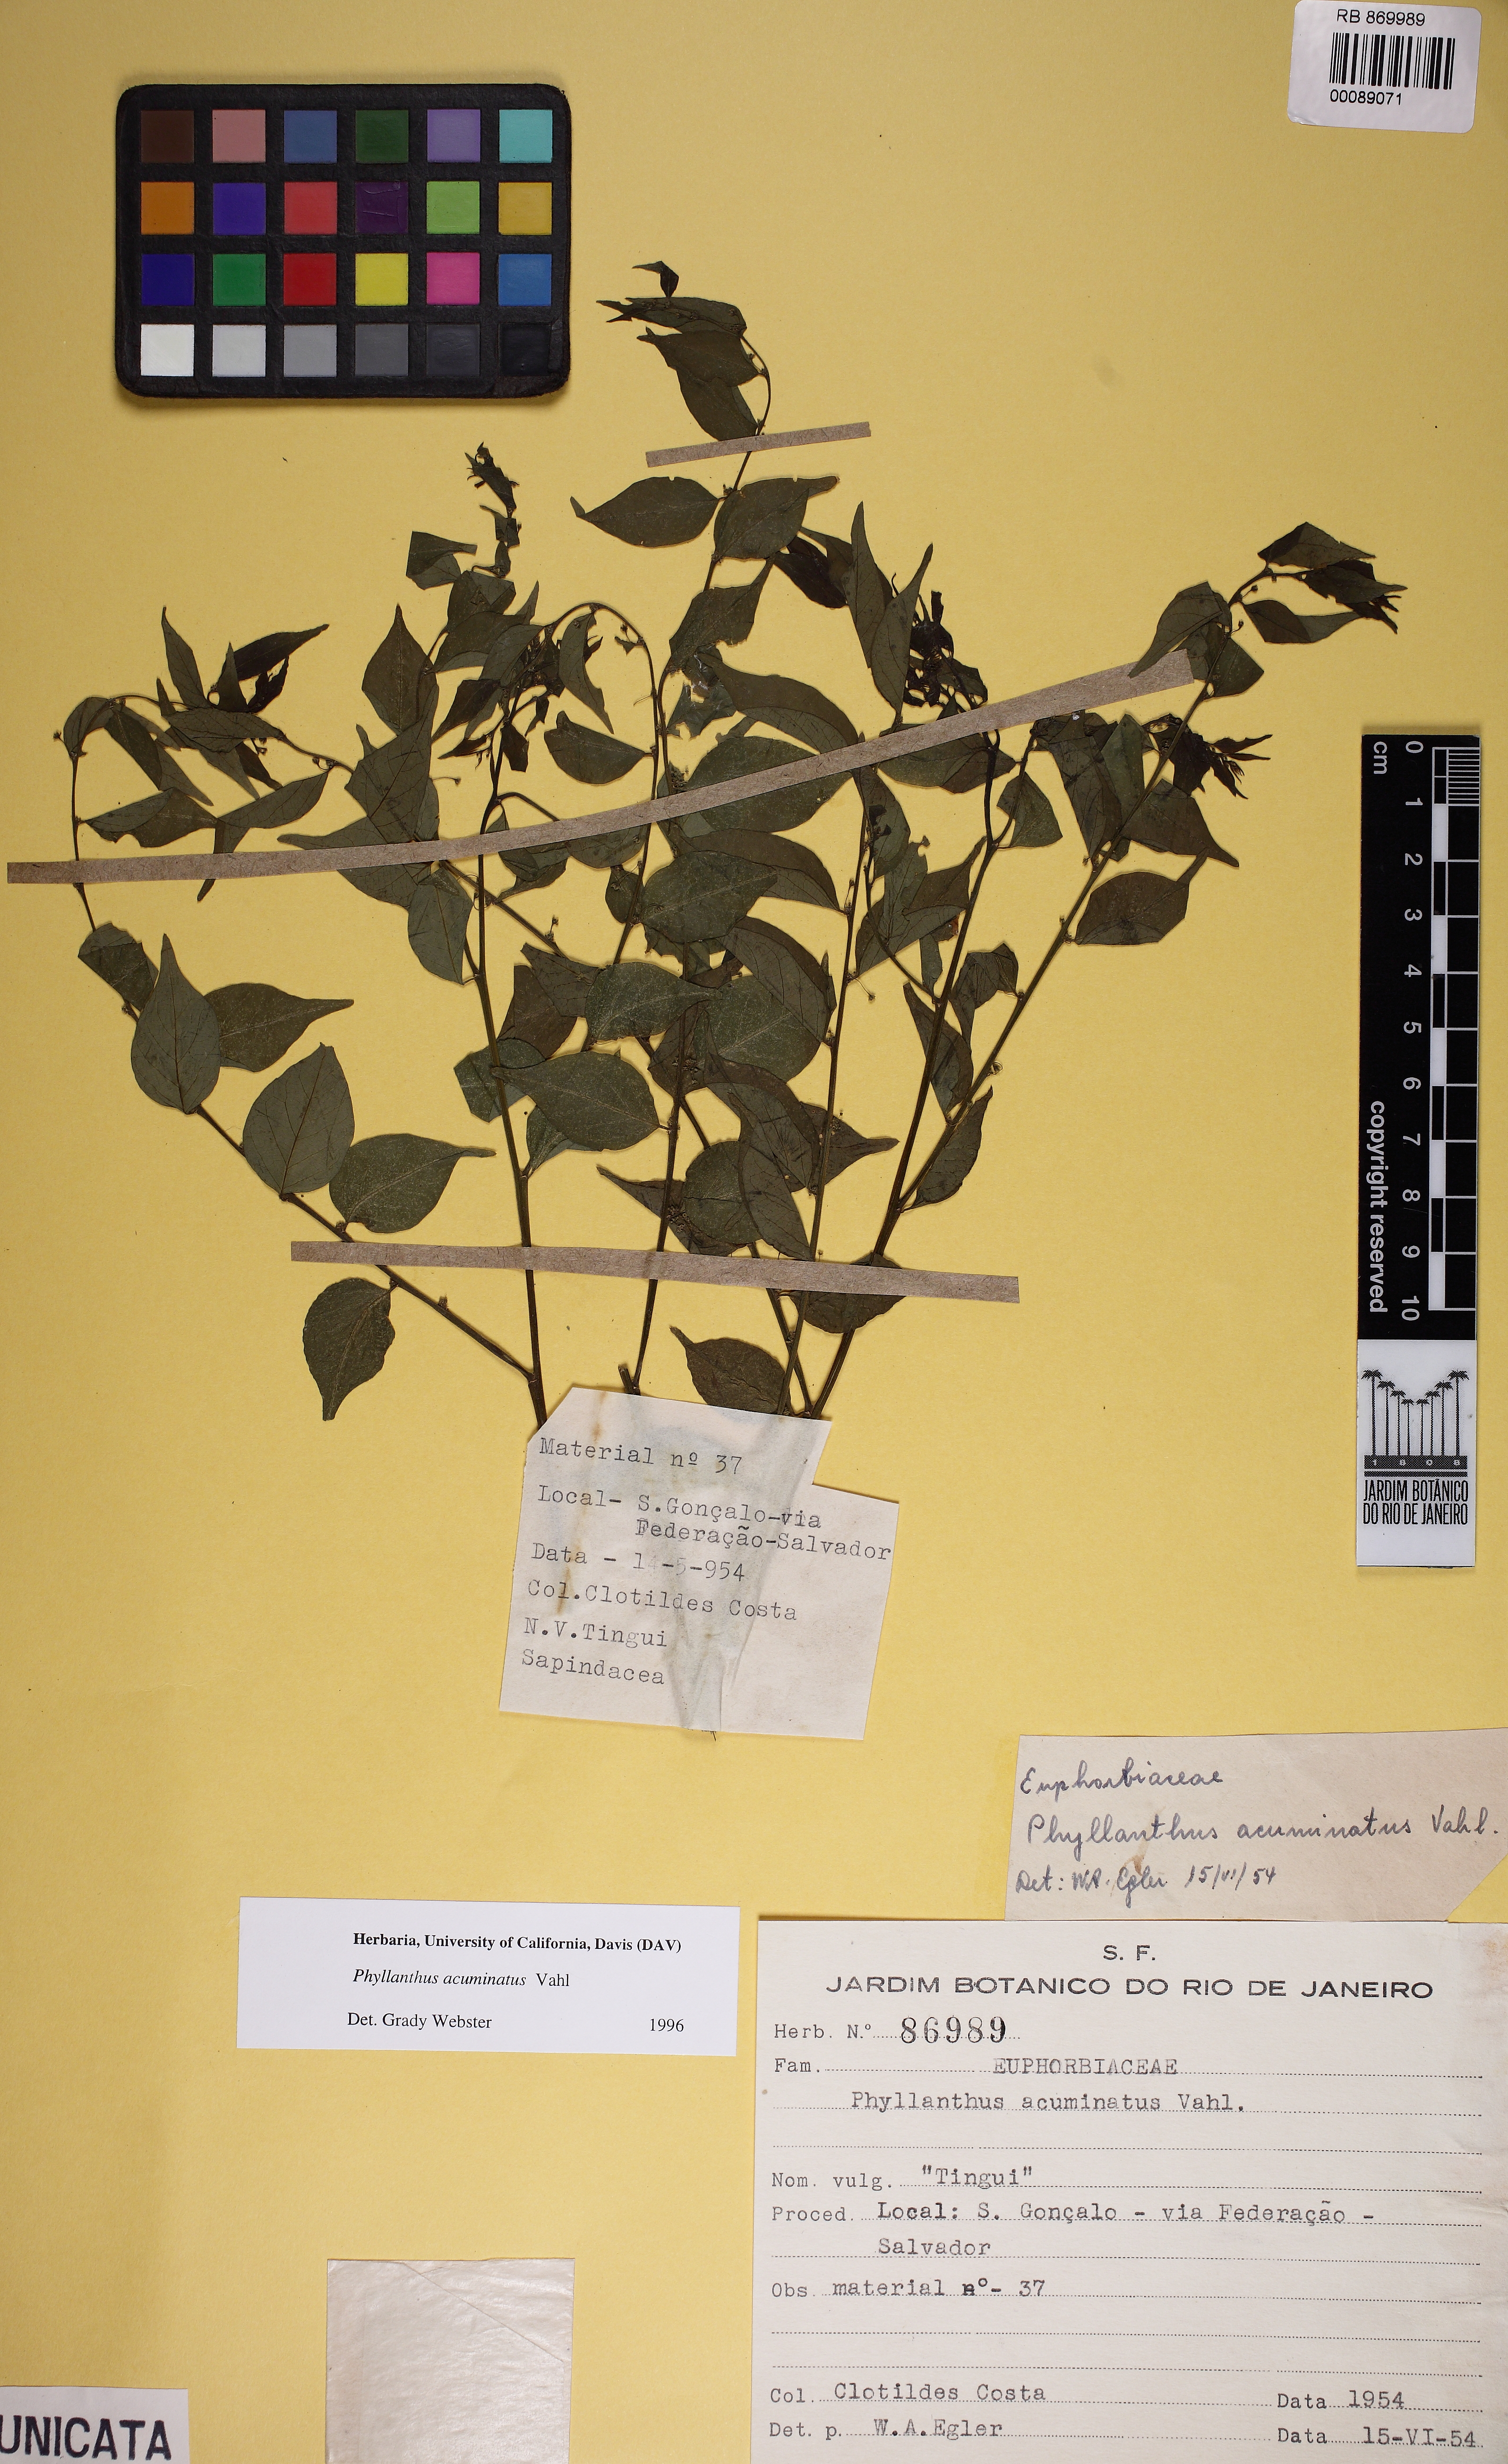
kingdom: Plantae
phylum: Tracheophyta
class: Magnoliopsida
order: Malpighiales
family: Phyllanthaceae
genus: Phyllanthus
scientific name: Phyllanthus acuminatus
